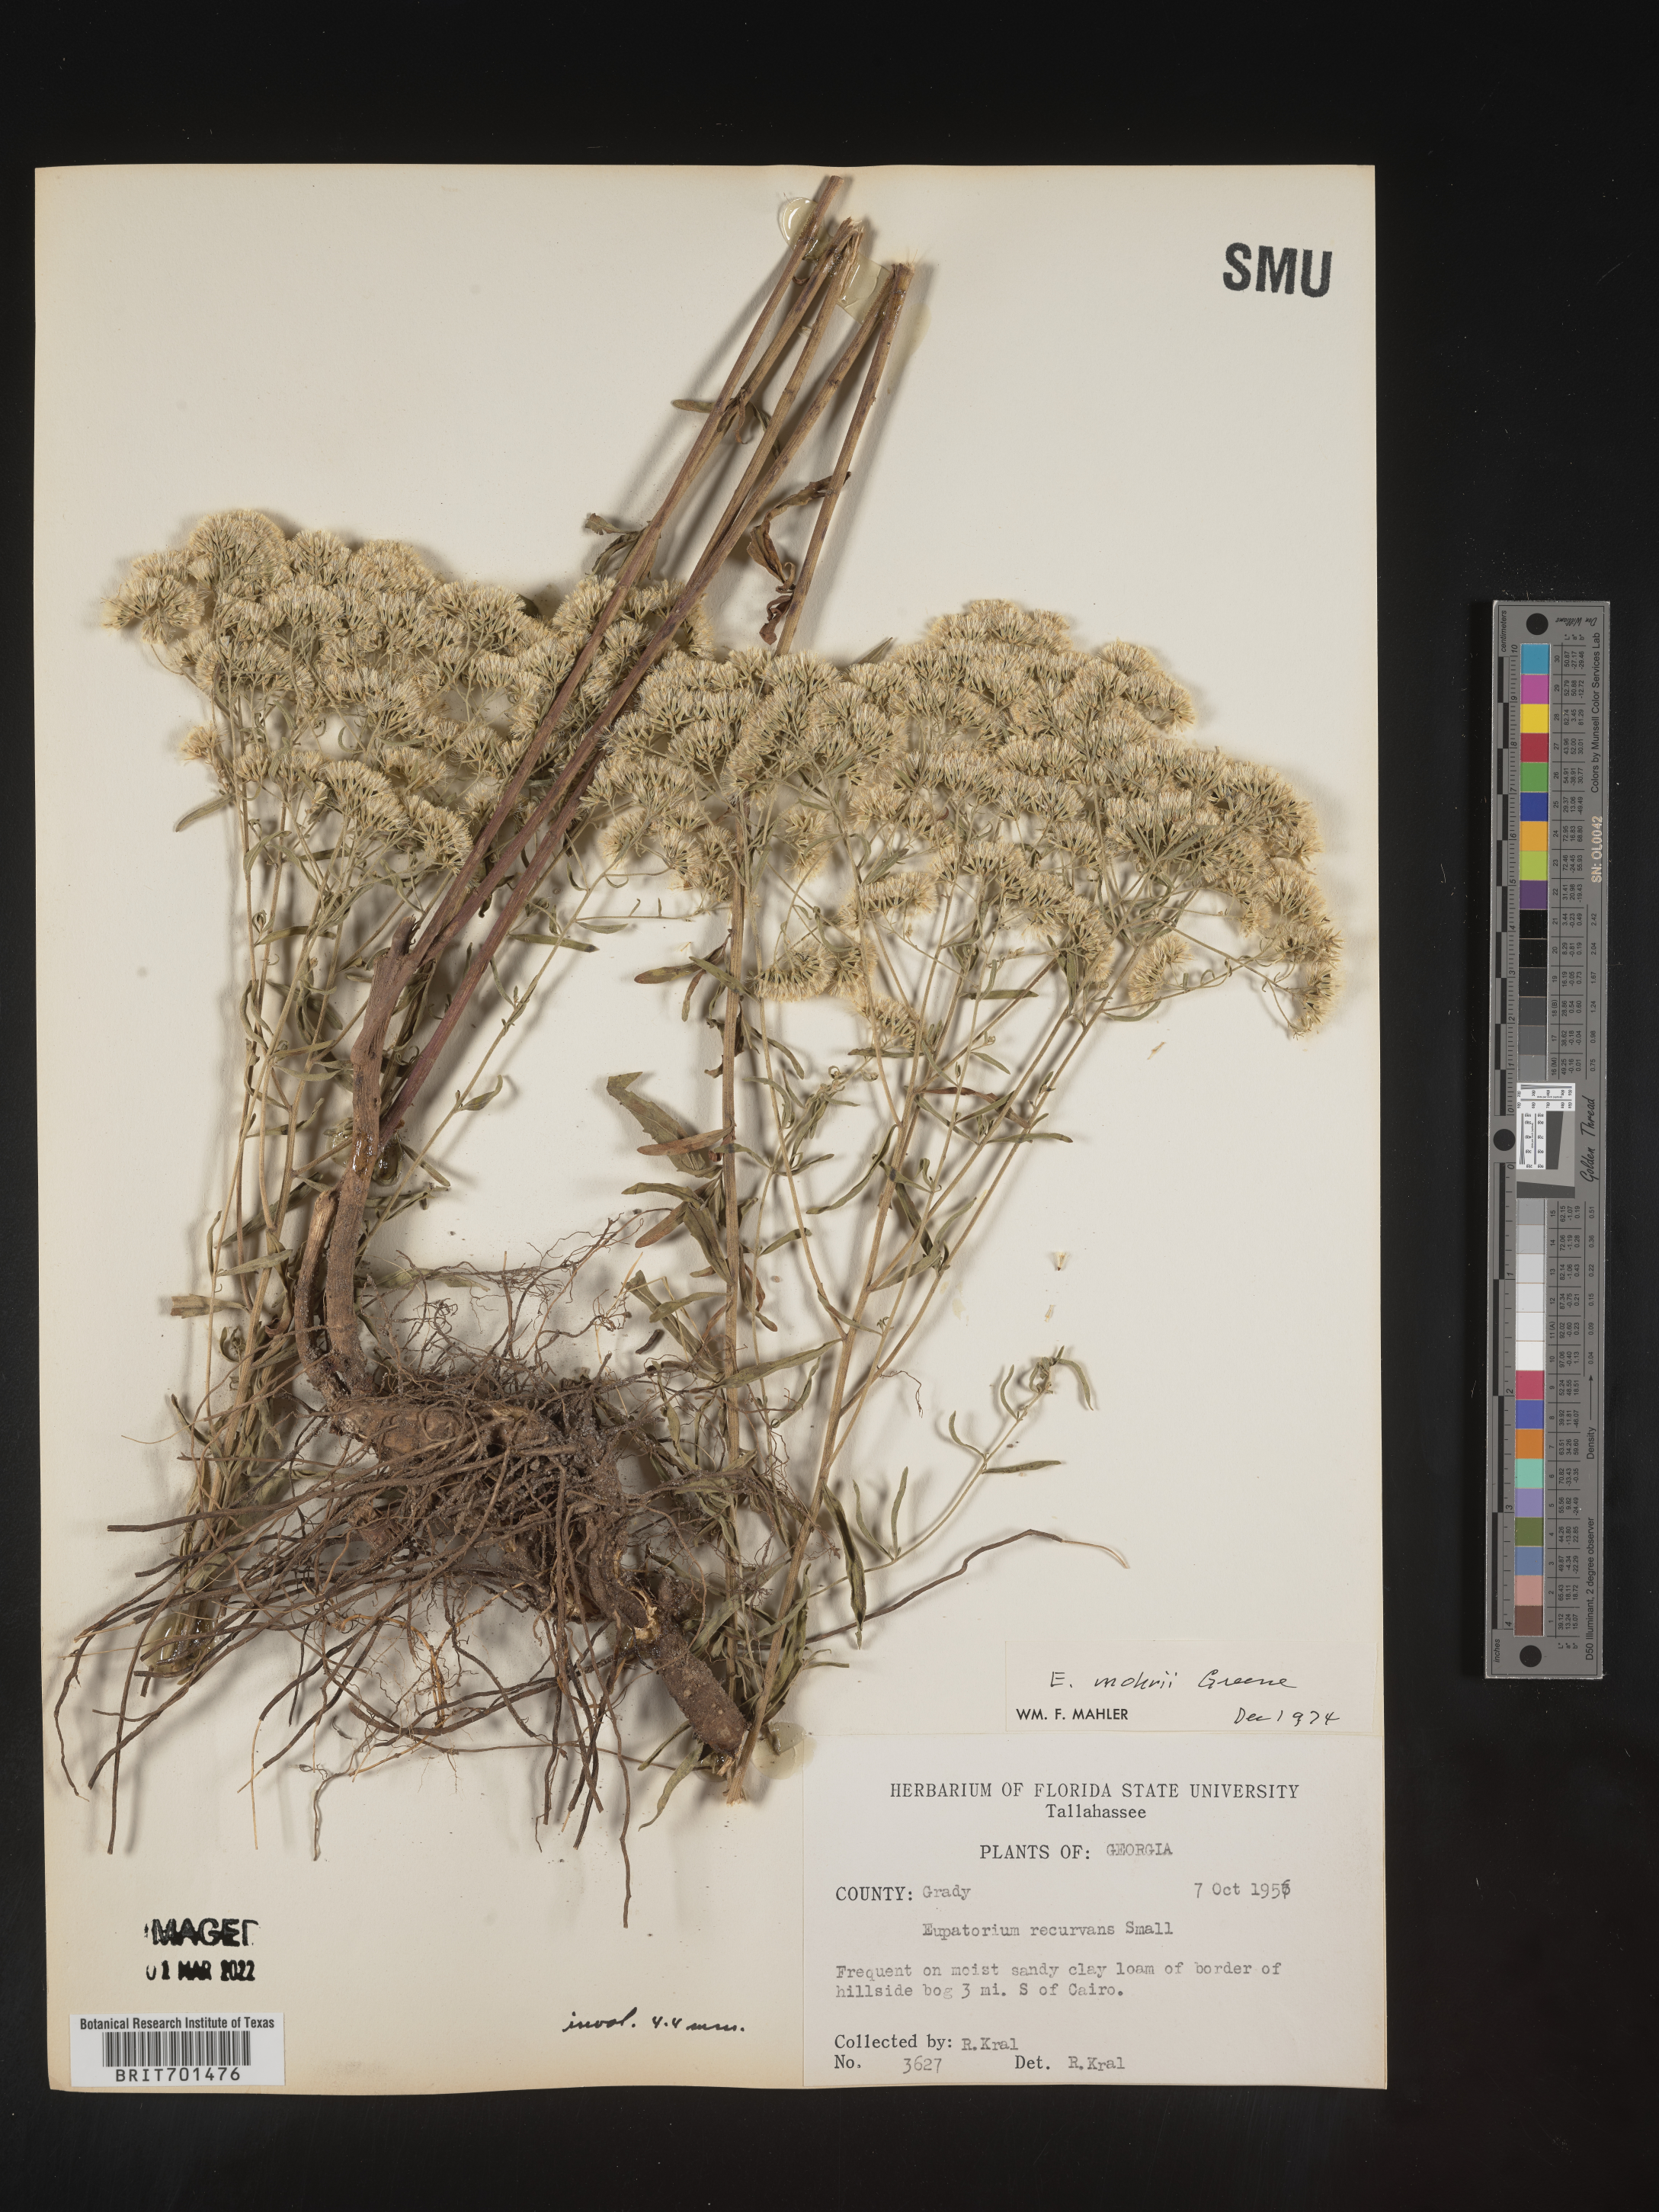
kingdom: Plantae
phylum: Tracheophyta
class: Magnoliopsida
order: Asterales
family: Asteraceae
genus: Eupatorium
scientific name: Eupatorium mohrii
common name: Mohr's thoroughwort
